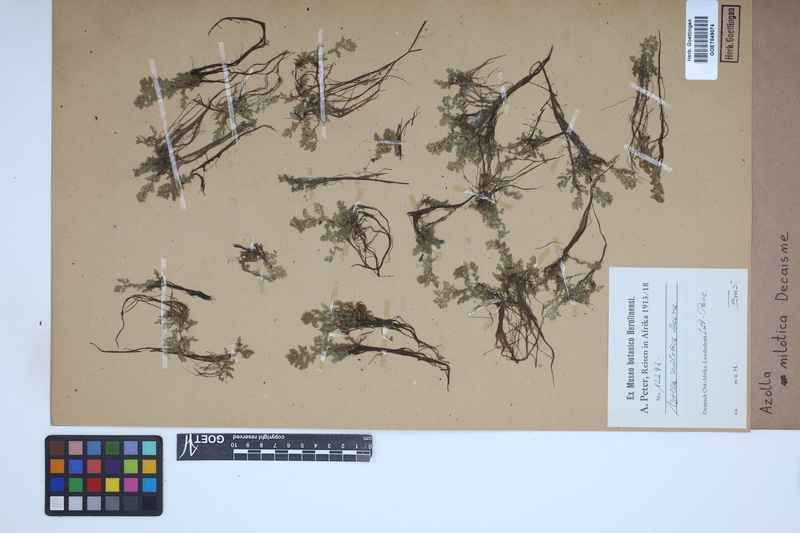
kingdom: Plantae
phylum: Tracheophyta
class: Polypodiopsida
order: Salviniales
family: Salviniaceae
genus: Azolla
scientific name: Azolla nilotica
